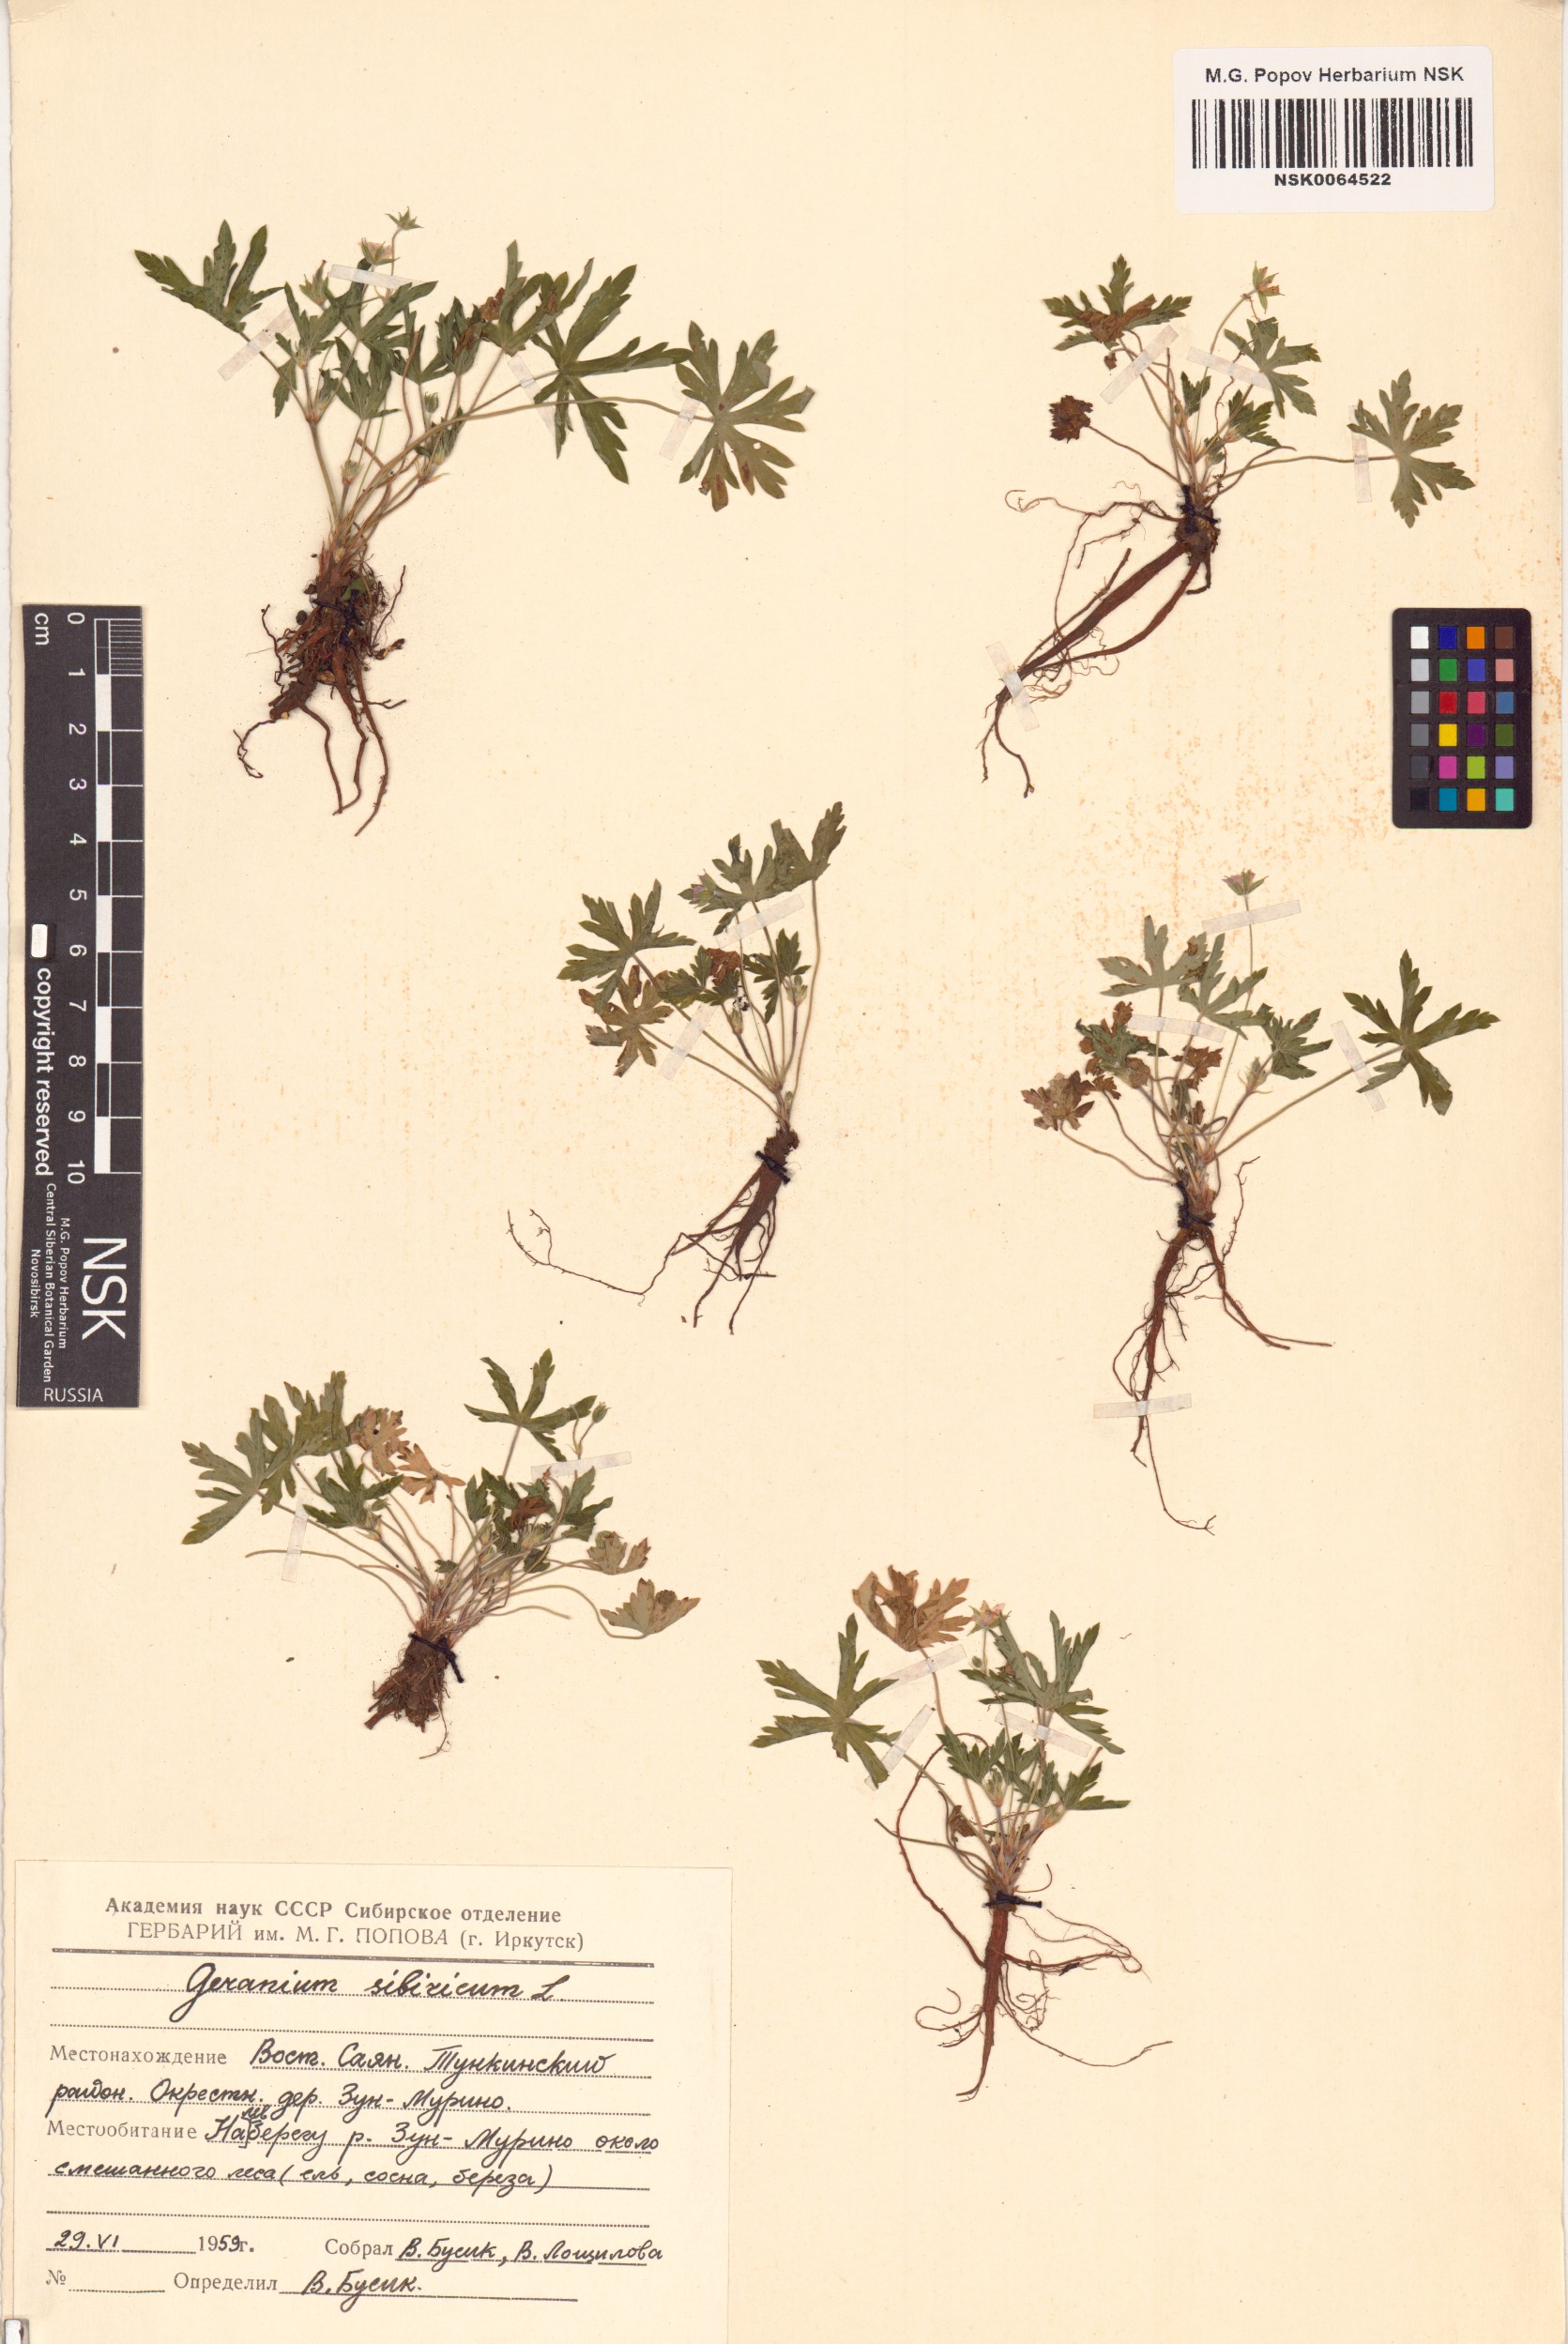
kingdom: Plantae
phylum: Tracheophyta
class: Magnoliopsida
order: Geraniales
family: Geraniaceae
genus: Geranium
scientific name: Geranium sibiricum
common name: Siberian crane's-bill
